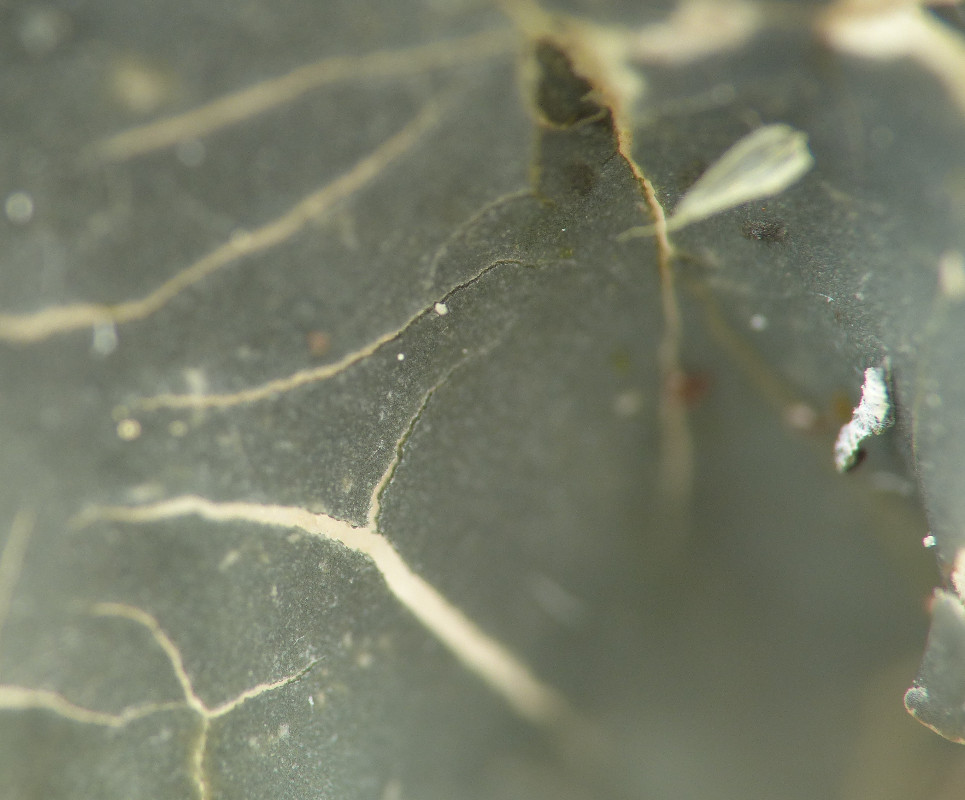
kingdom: Fungi
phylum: Ascomycota
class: Lecanoromycetes
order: Peltigerales
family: Peltigeraceae
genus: Peltigera
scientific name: Peltigera hymenina
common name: hinde-skjoldlav
